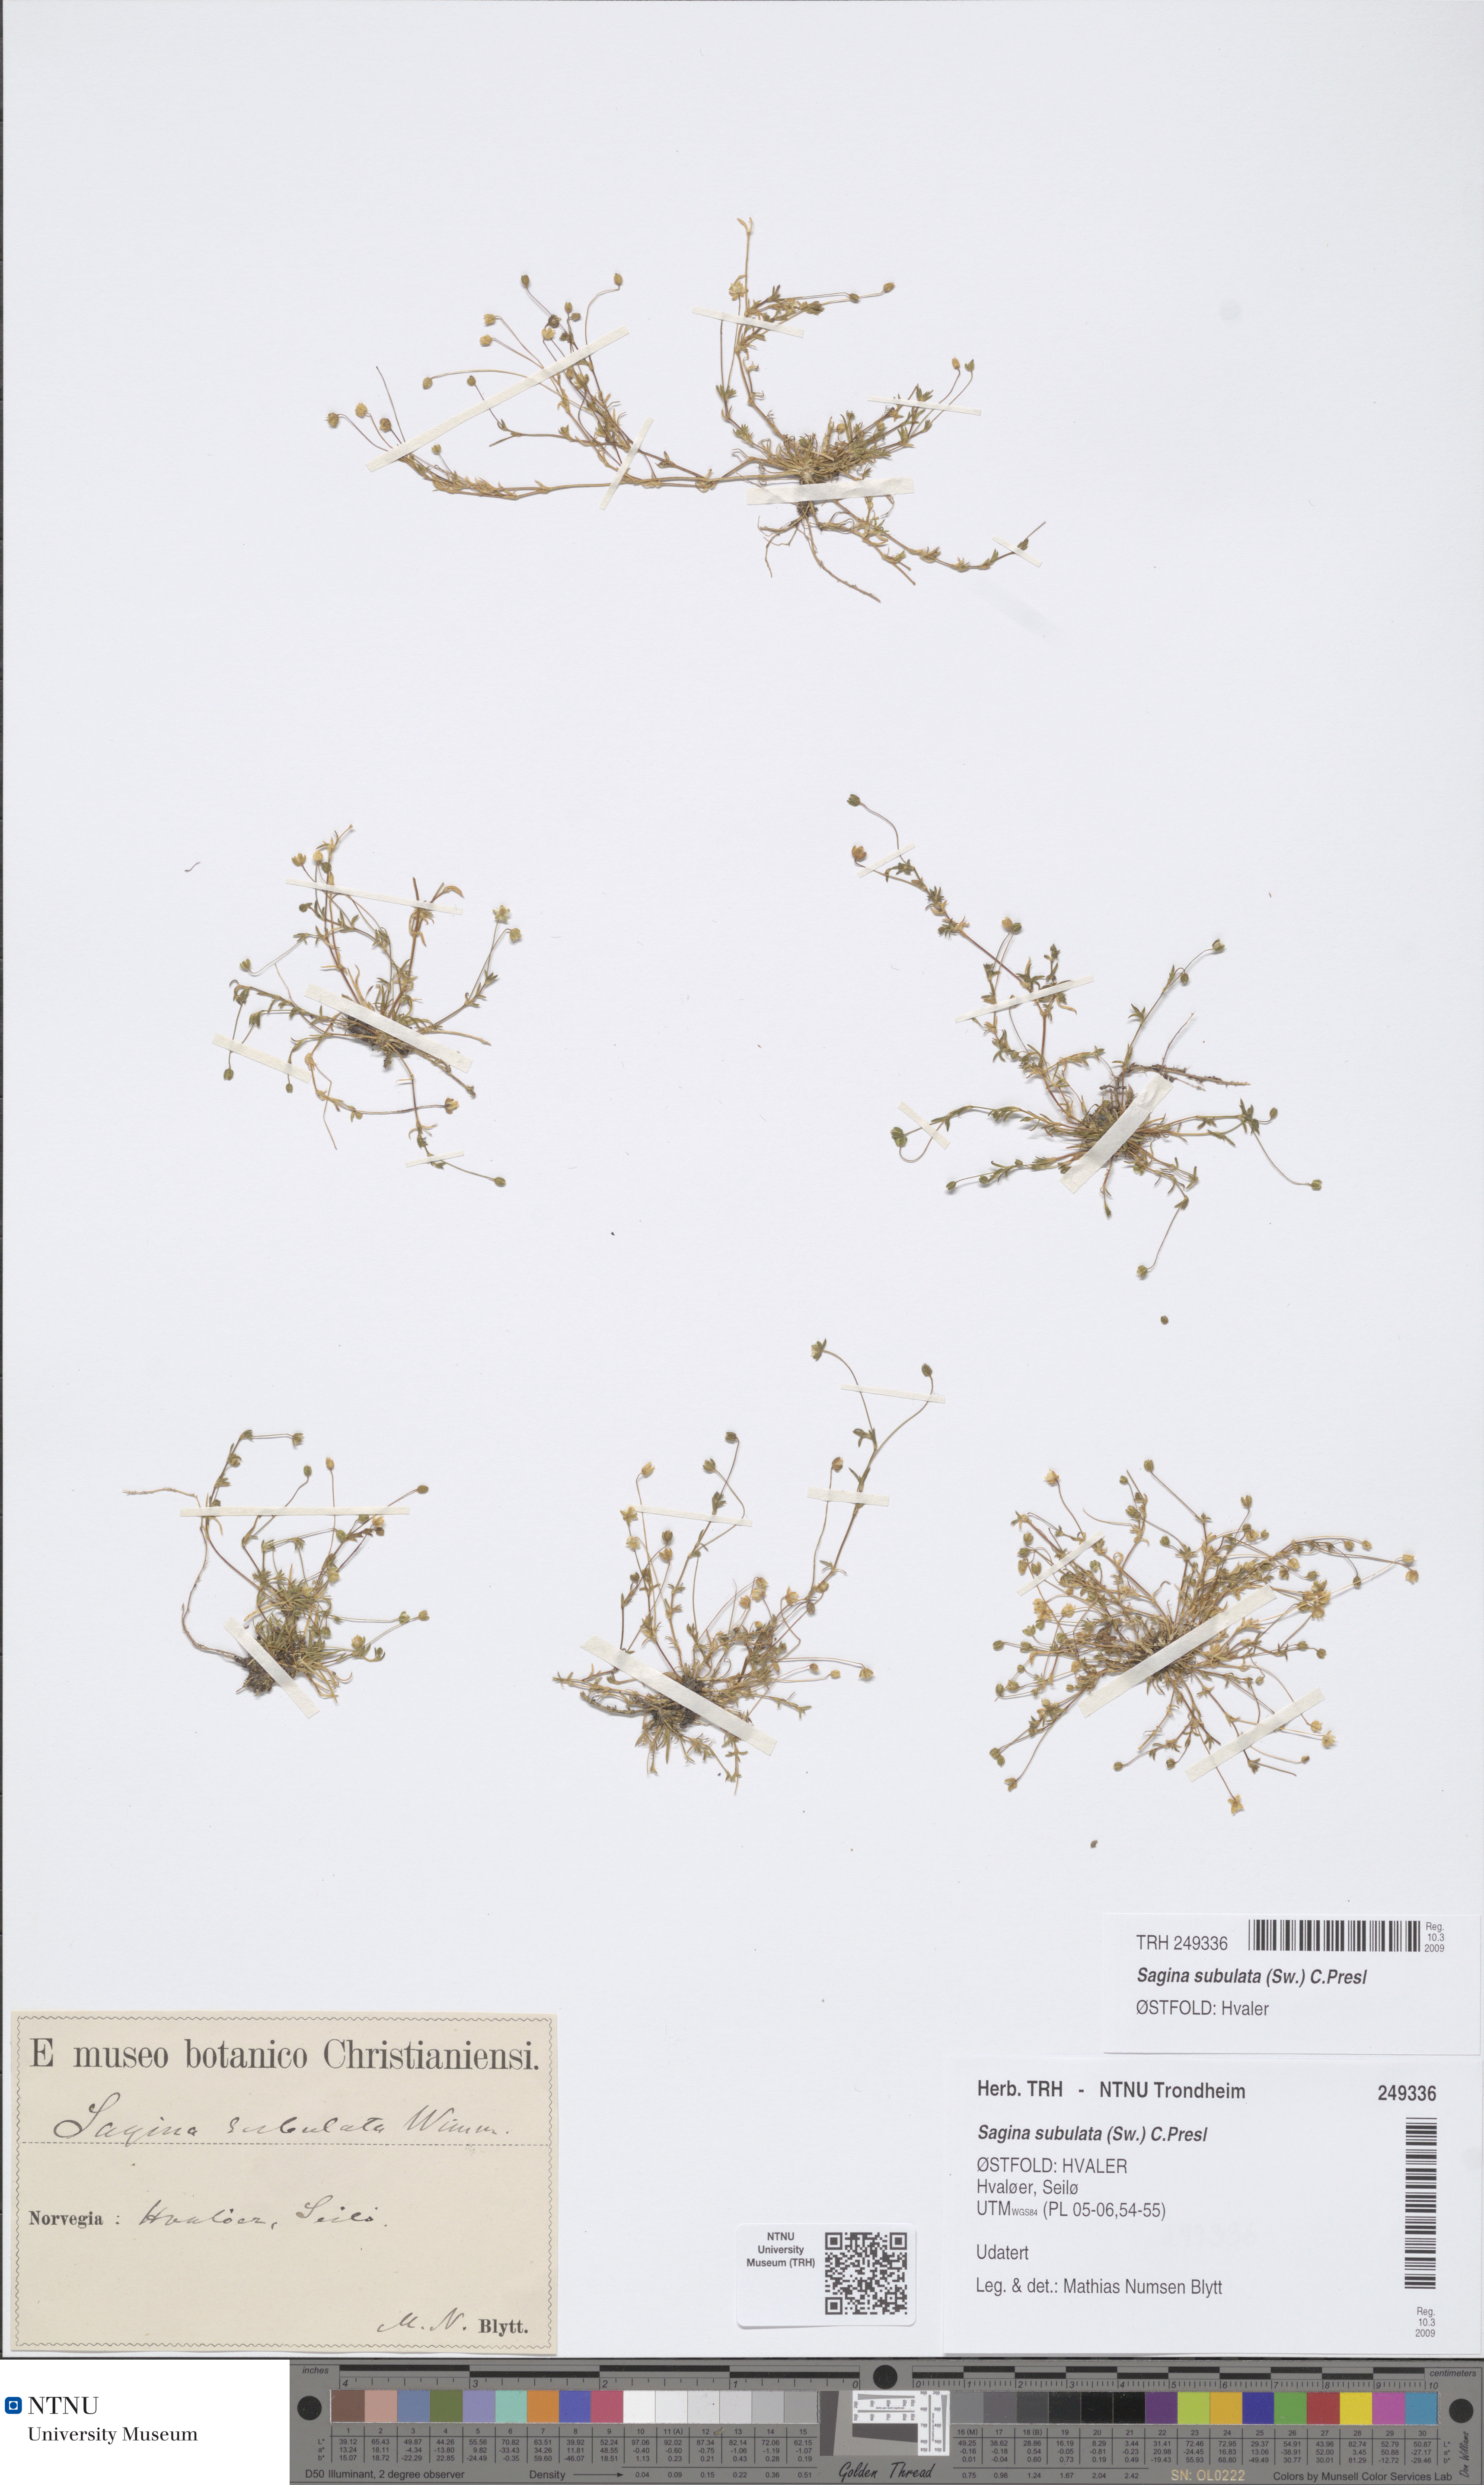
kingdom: Plantae
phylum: Tracheophyta
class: Magnoliopsida
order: Caryophyllales
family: Caryophyllaceae
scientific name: Caryophyllaceae
